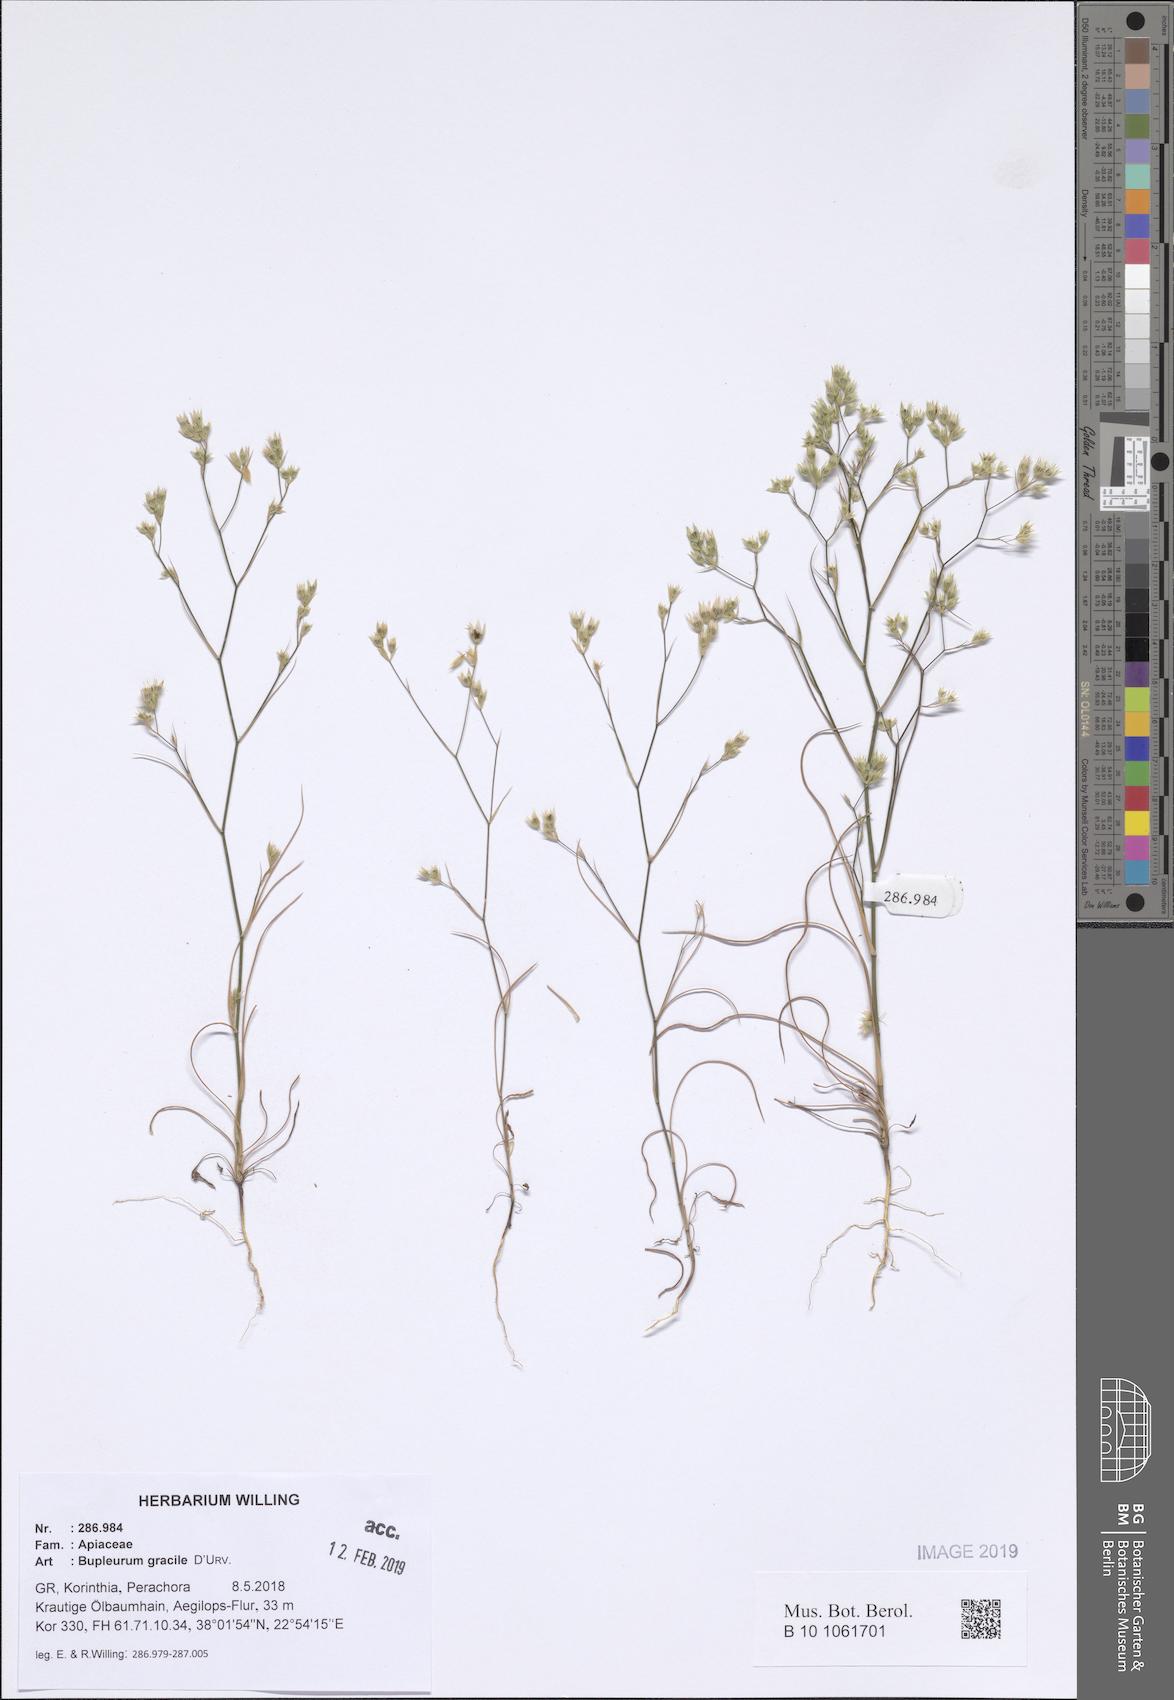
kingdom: Plantae
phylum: Tracheophyta
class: Magnoliopsida
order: Apiales
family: Apiaceae
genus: Bupleurum
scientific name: Bupleurum gracile
